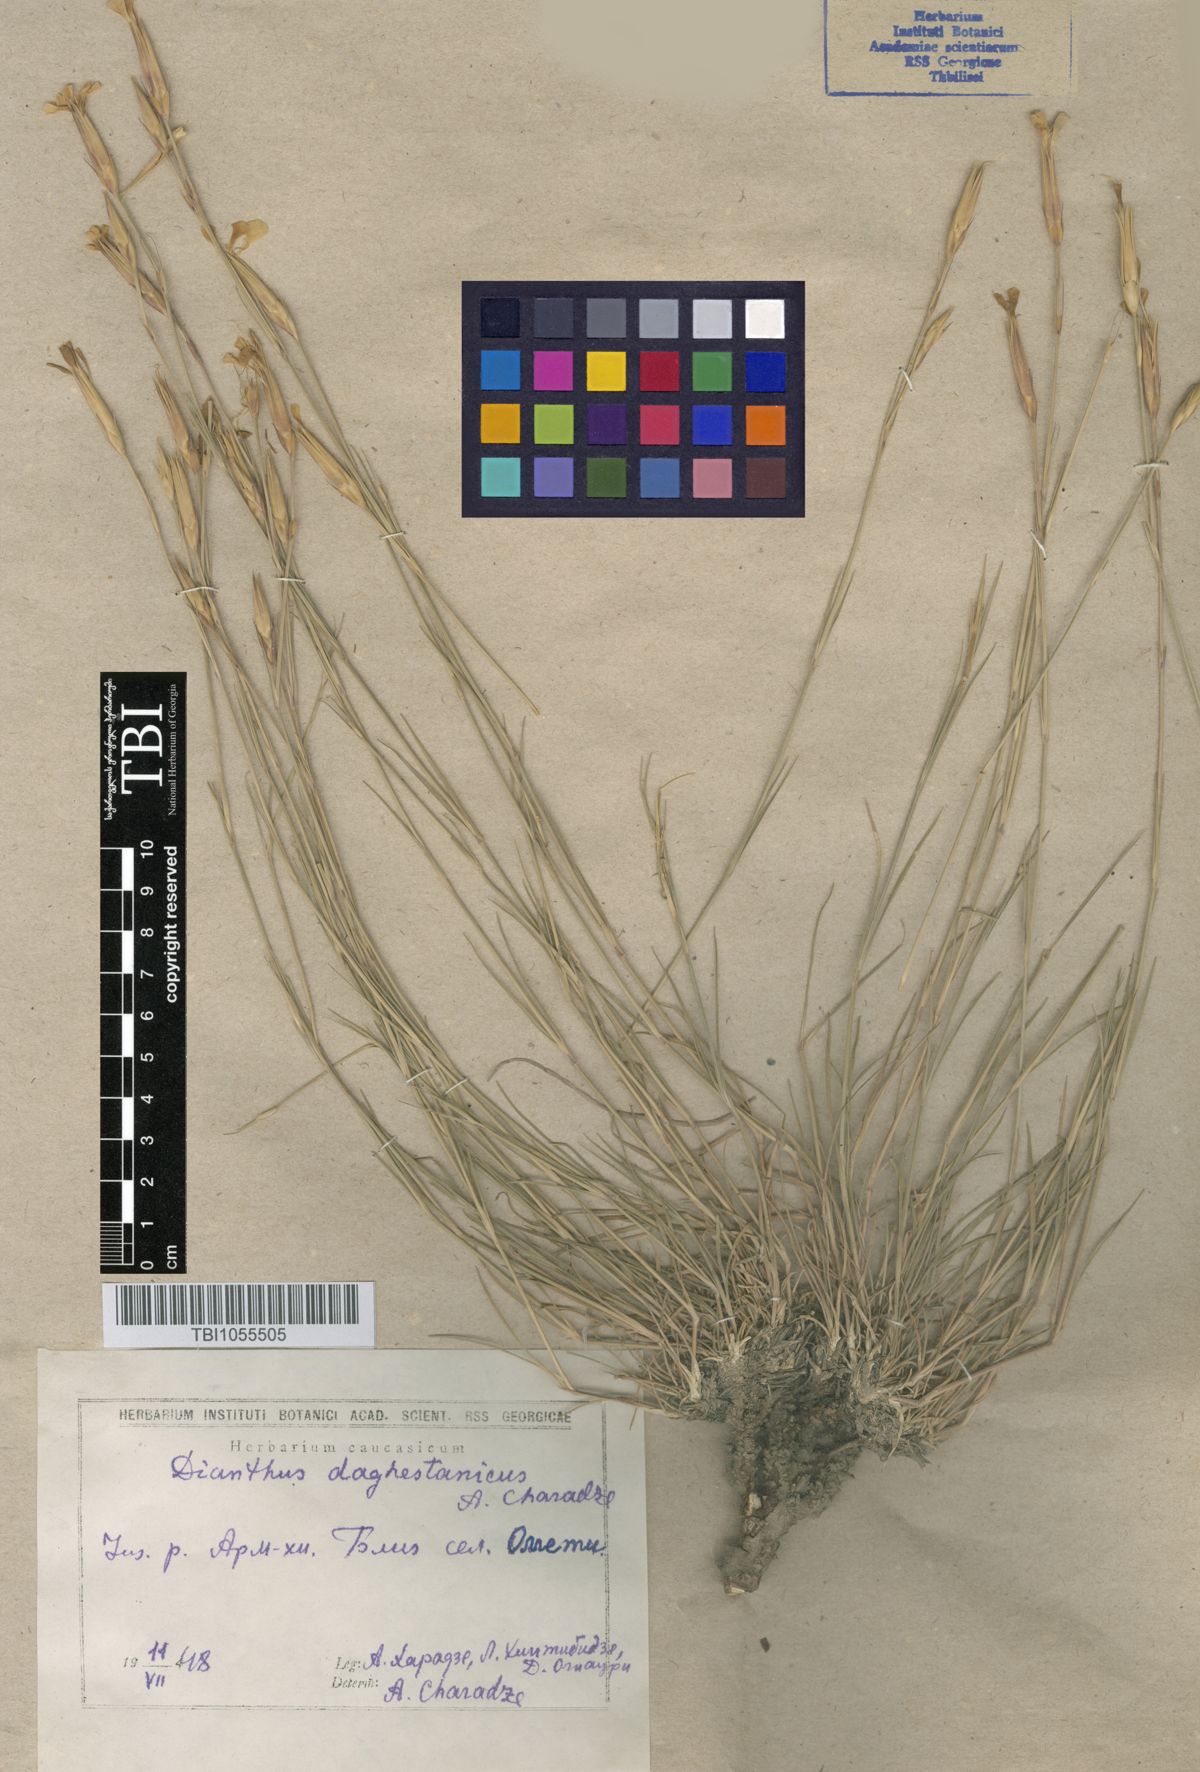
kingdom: Plantae
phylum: Tracheophyta
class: Magnoliopsida
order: Caryophyllales
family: Caryophyllaceae
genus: Dianthus
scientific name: Dianthus daghestanicus
